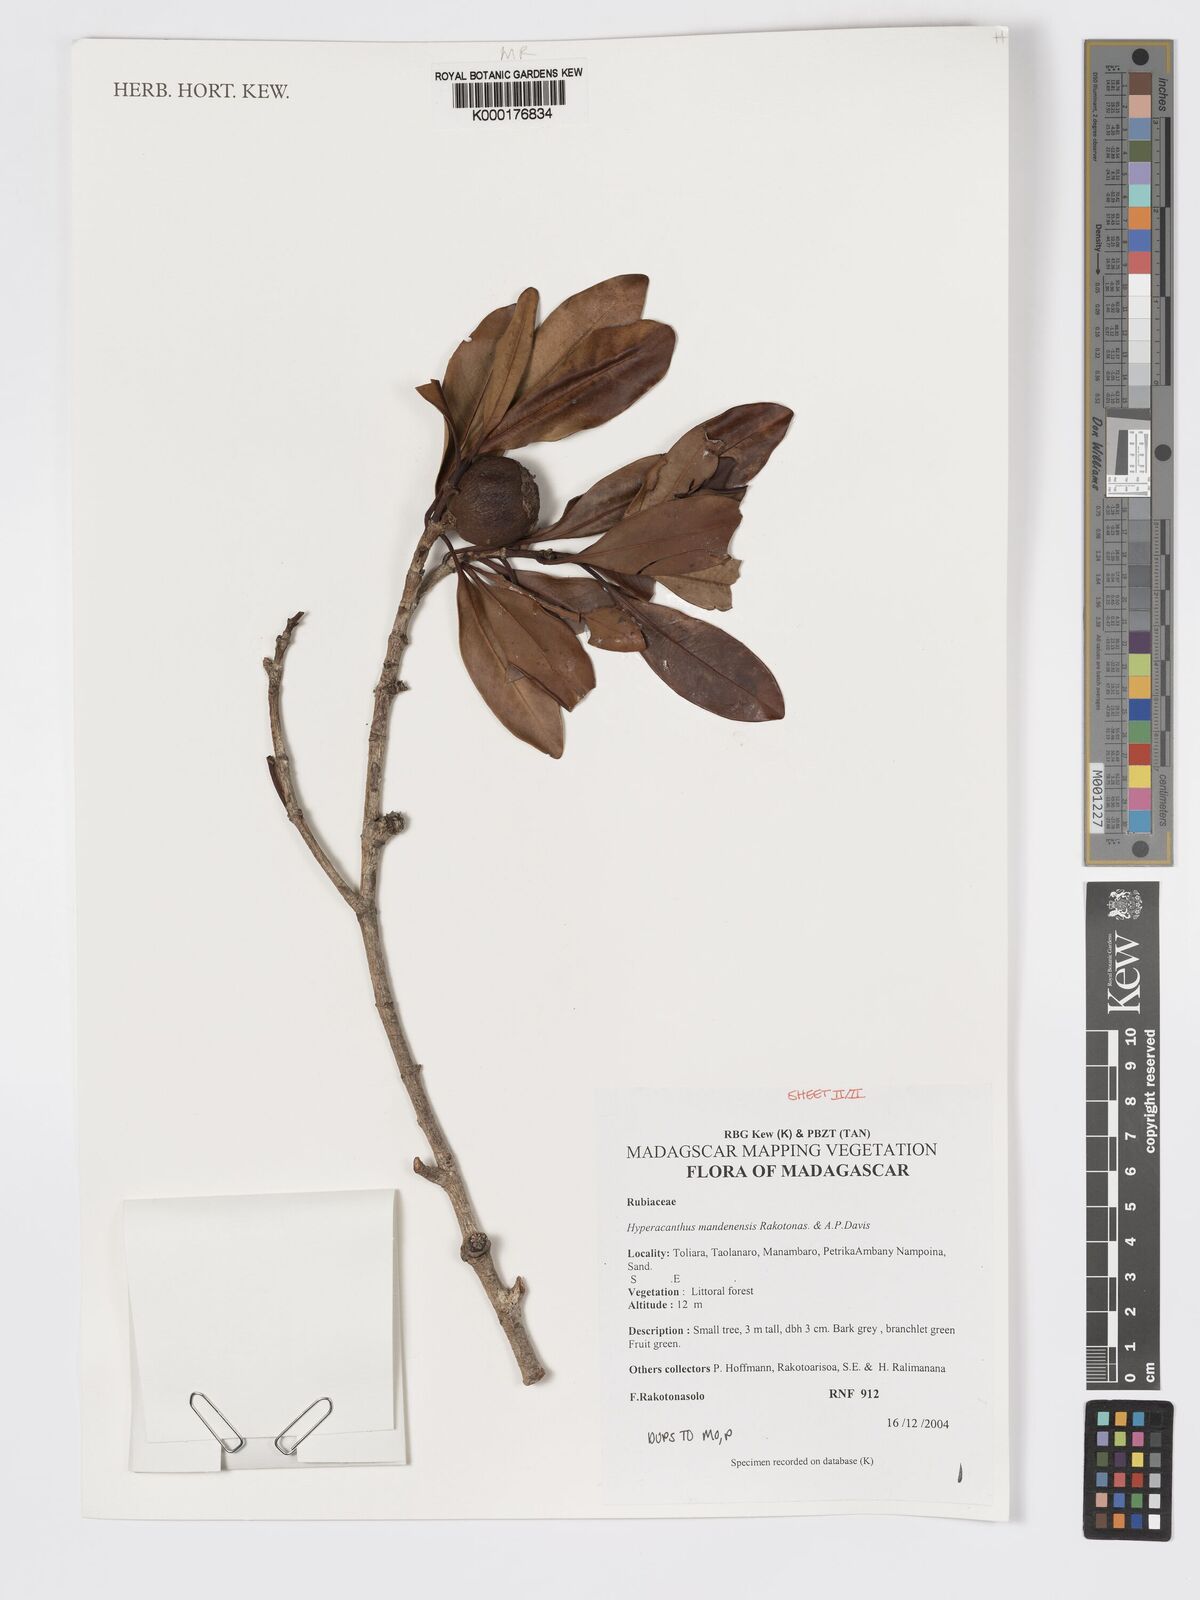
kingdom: Plantae
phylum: Tracheophyta
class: Magnoliopsida
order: Gentianales
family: Rubiaceae
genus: Hyperacanthus
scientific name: Hyperacanthus mandenensis
